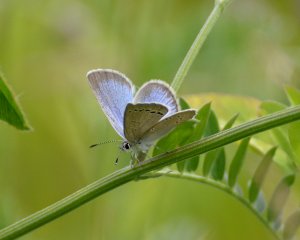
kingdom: Animalia
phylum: Arthropoda
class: Insecta
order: Lepidoptera
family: Lycaenidae
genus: Glaucopsyche
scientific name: Glaucopsyche lygdamus
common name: Silvery Blue
